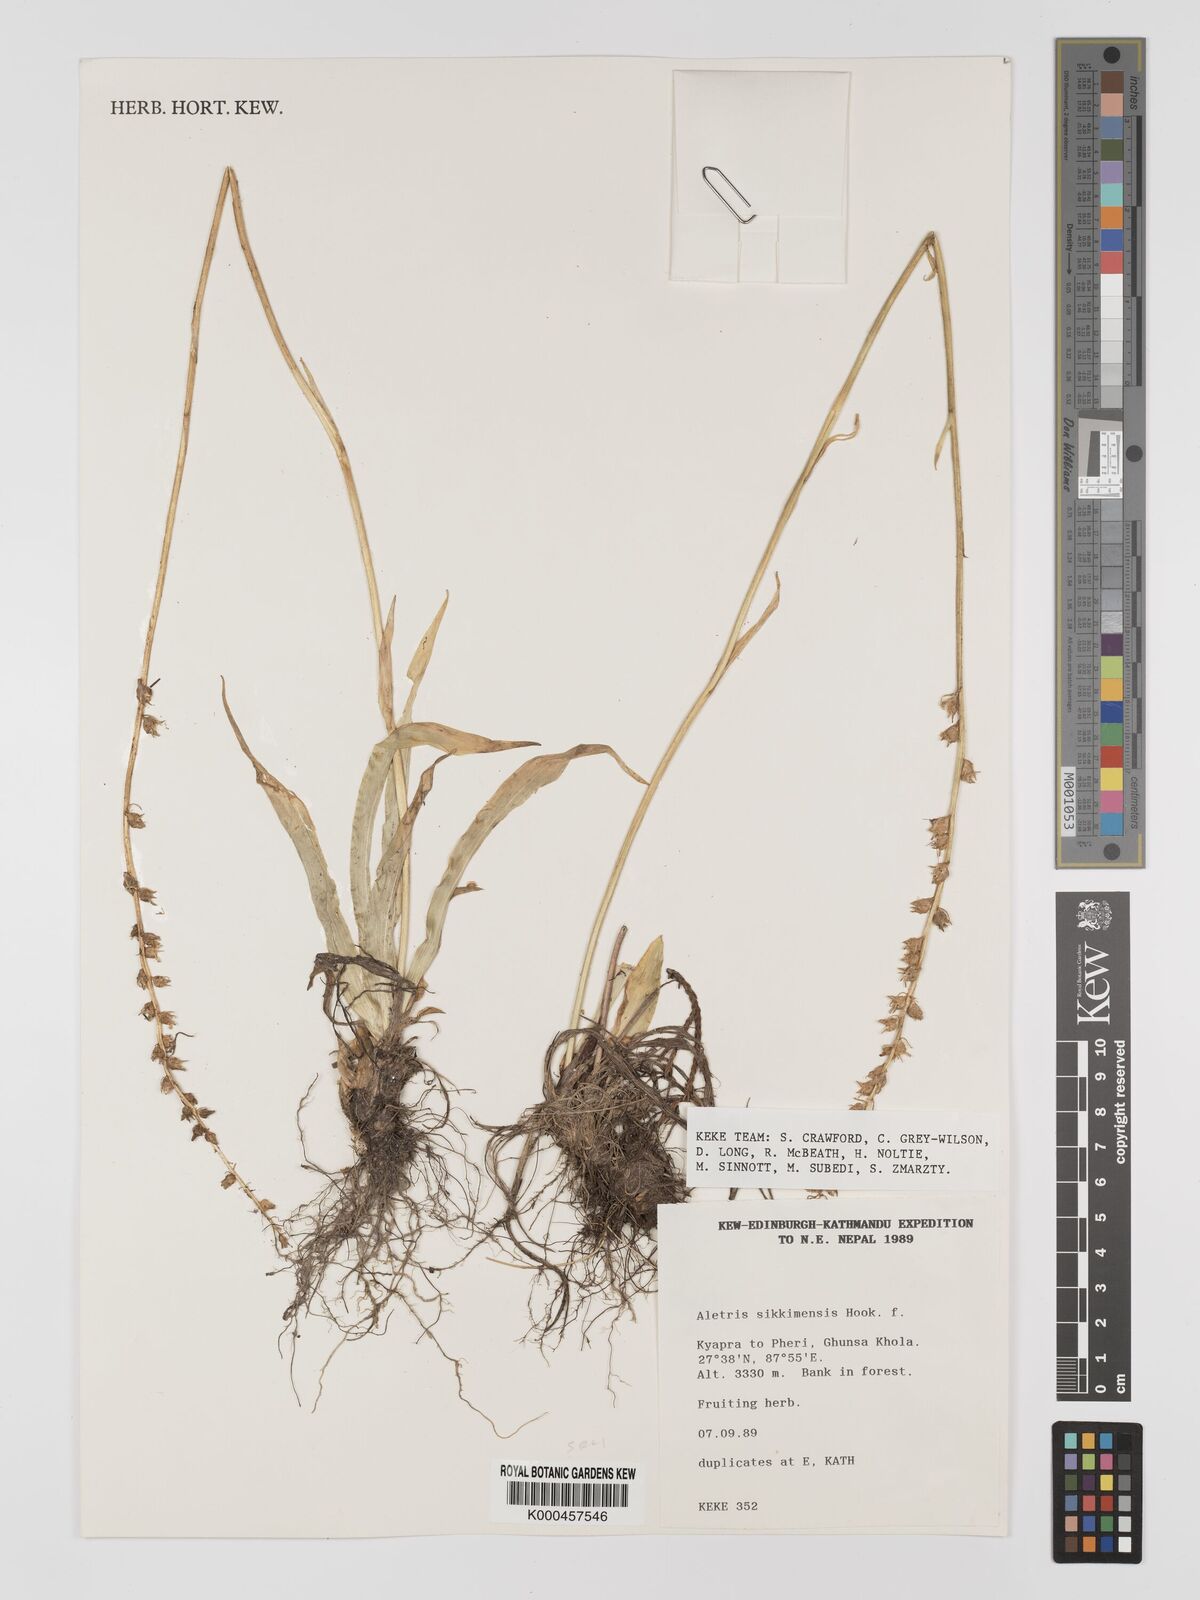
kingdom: Plantae
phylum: Tracheophyta
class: Liliopsida
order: Dioscoreales
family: Nartheciaceae
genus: Aletris
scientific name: Aletris glabra
